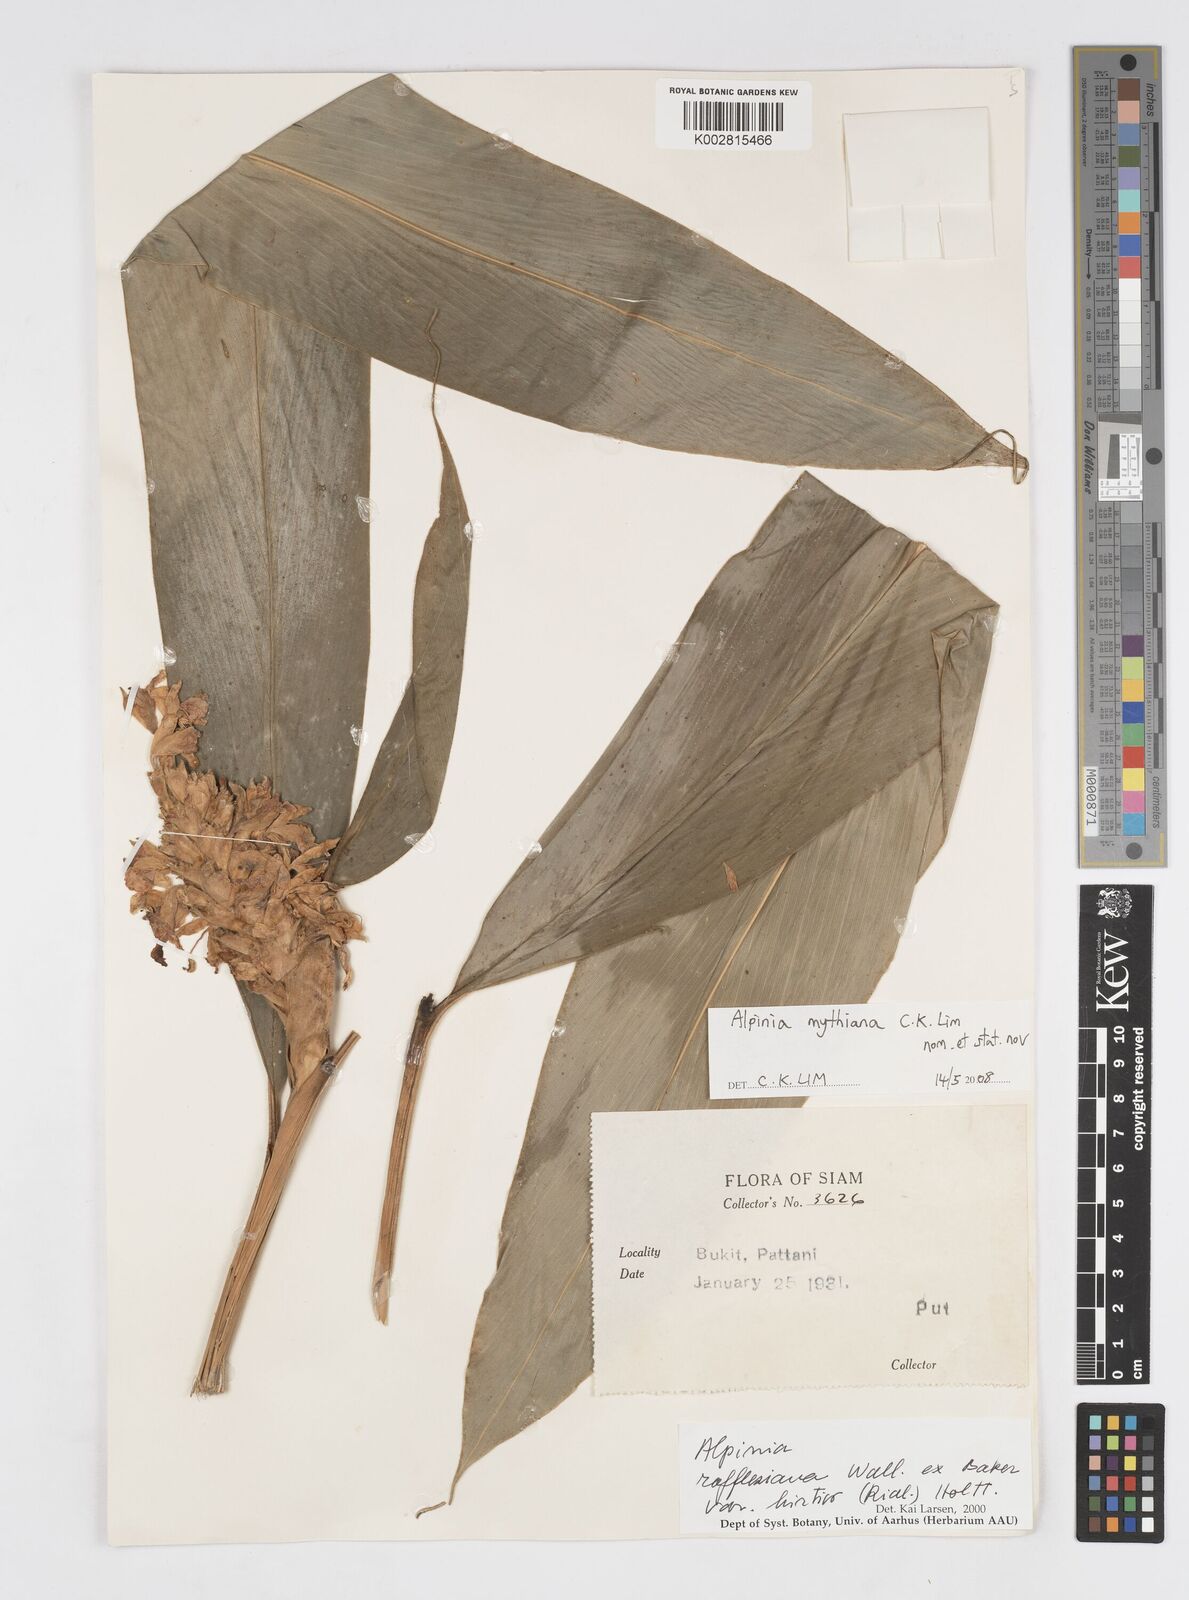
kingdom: Plantae
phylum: Tracheophyta
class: Liliopsida
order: Zingiberales
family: Zingiberaceae
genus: Alpinia
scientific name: Alpinia rafflesiana
